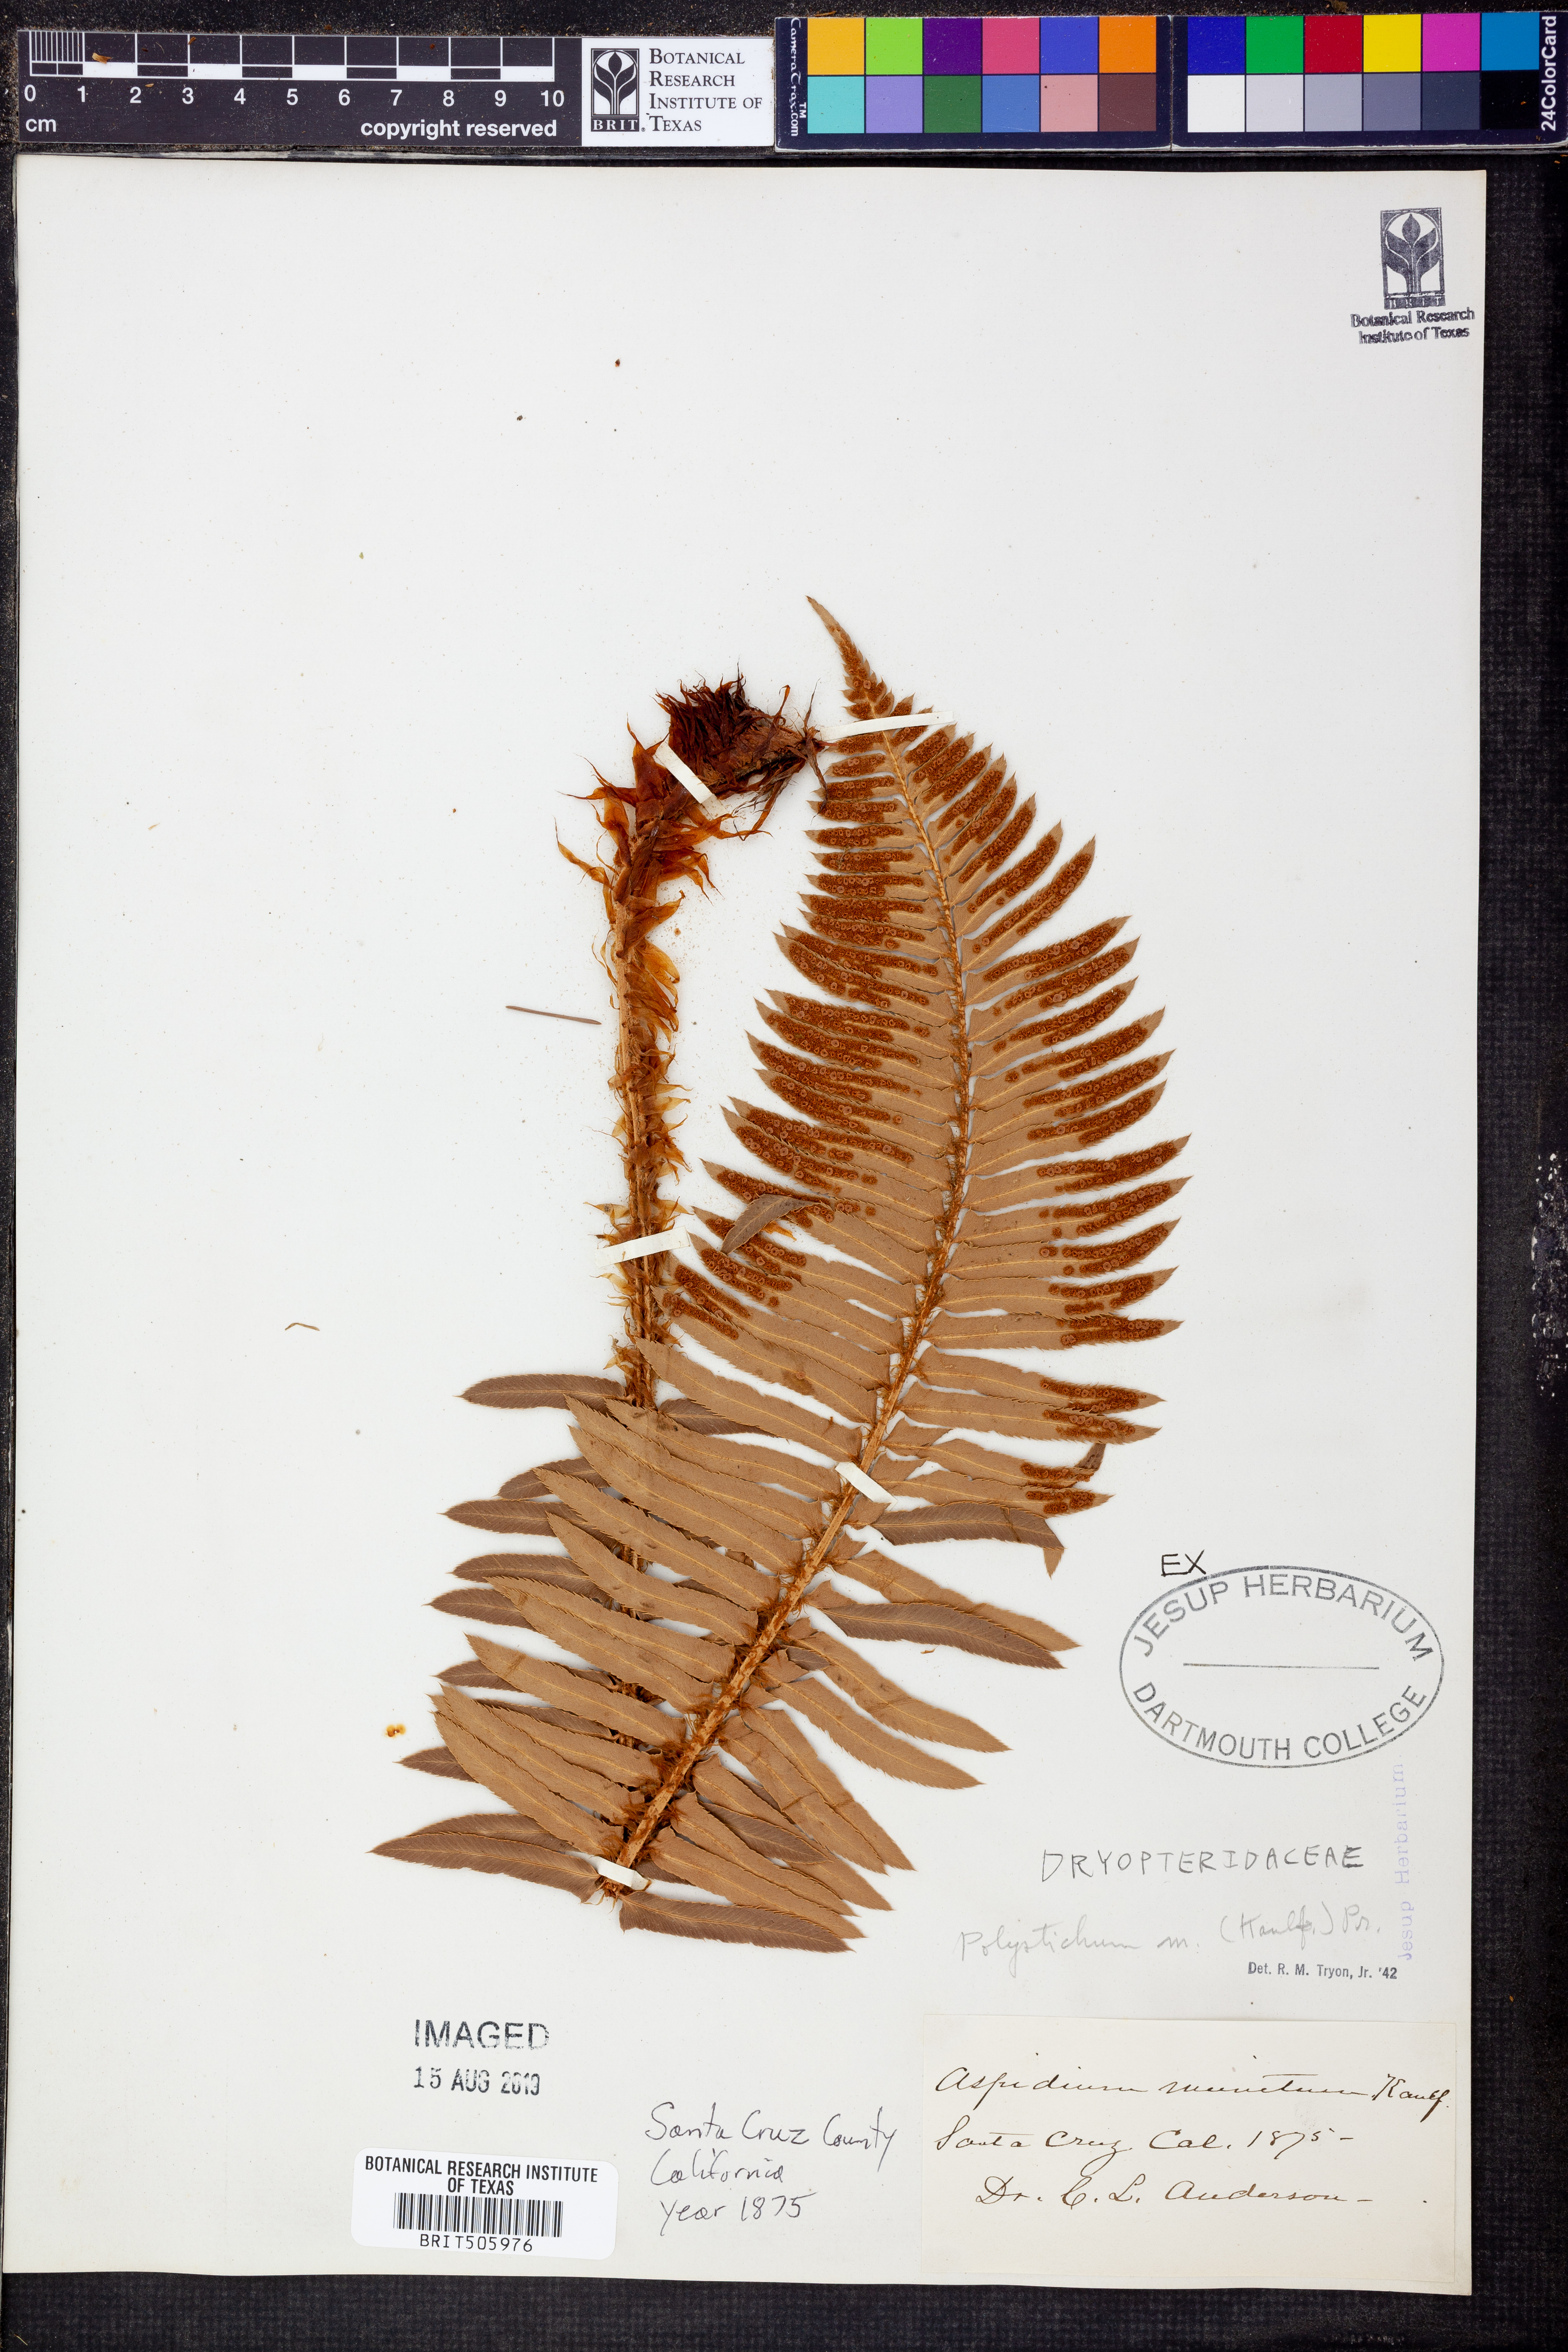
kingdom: Plantae
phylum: Tracheophyta
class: Polypodiopsida
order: Polypodiales
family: Dryopteridaceae
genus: Polystichum
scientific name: Polystichum munitum
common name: Western sword-fern
